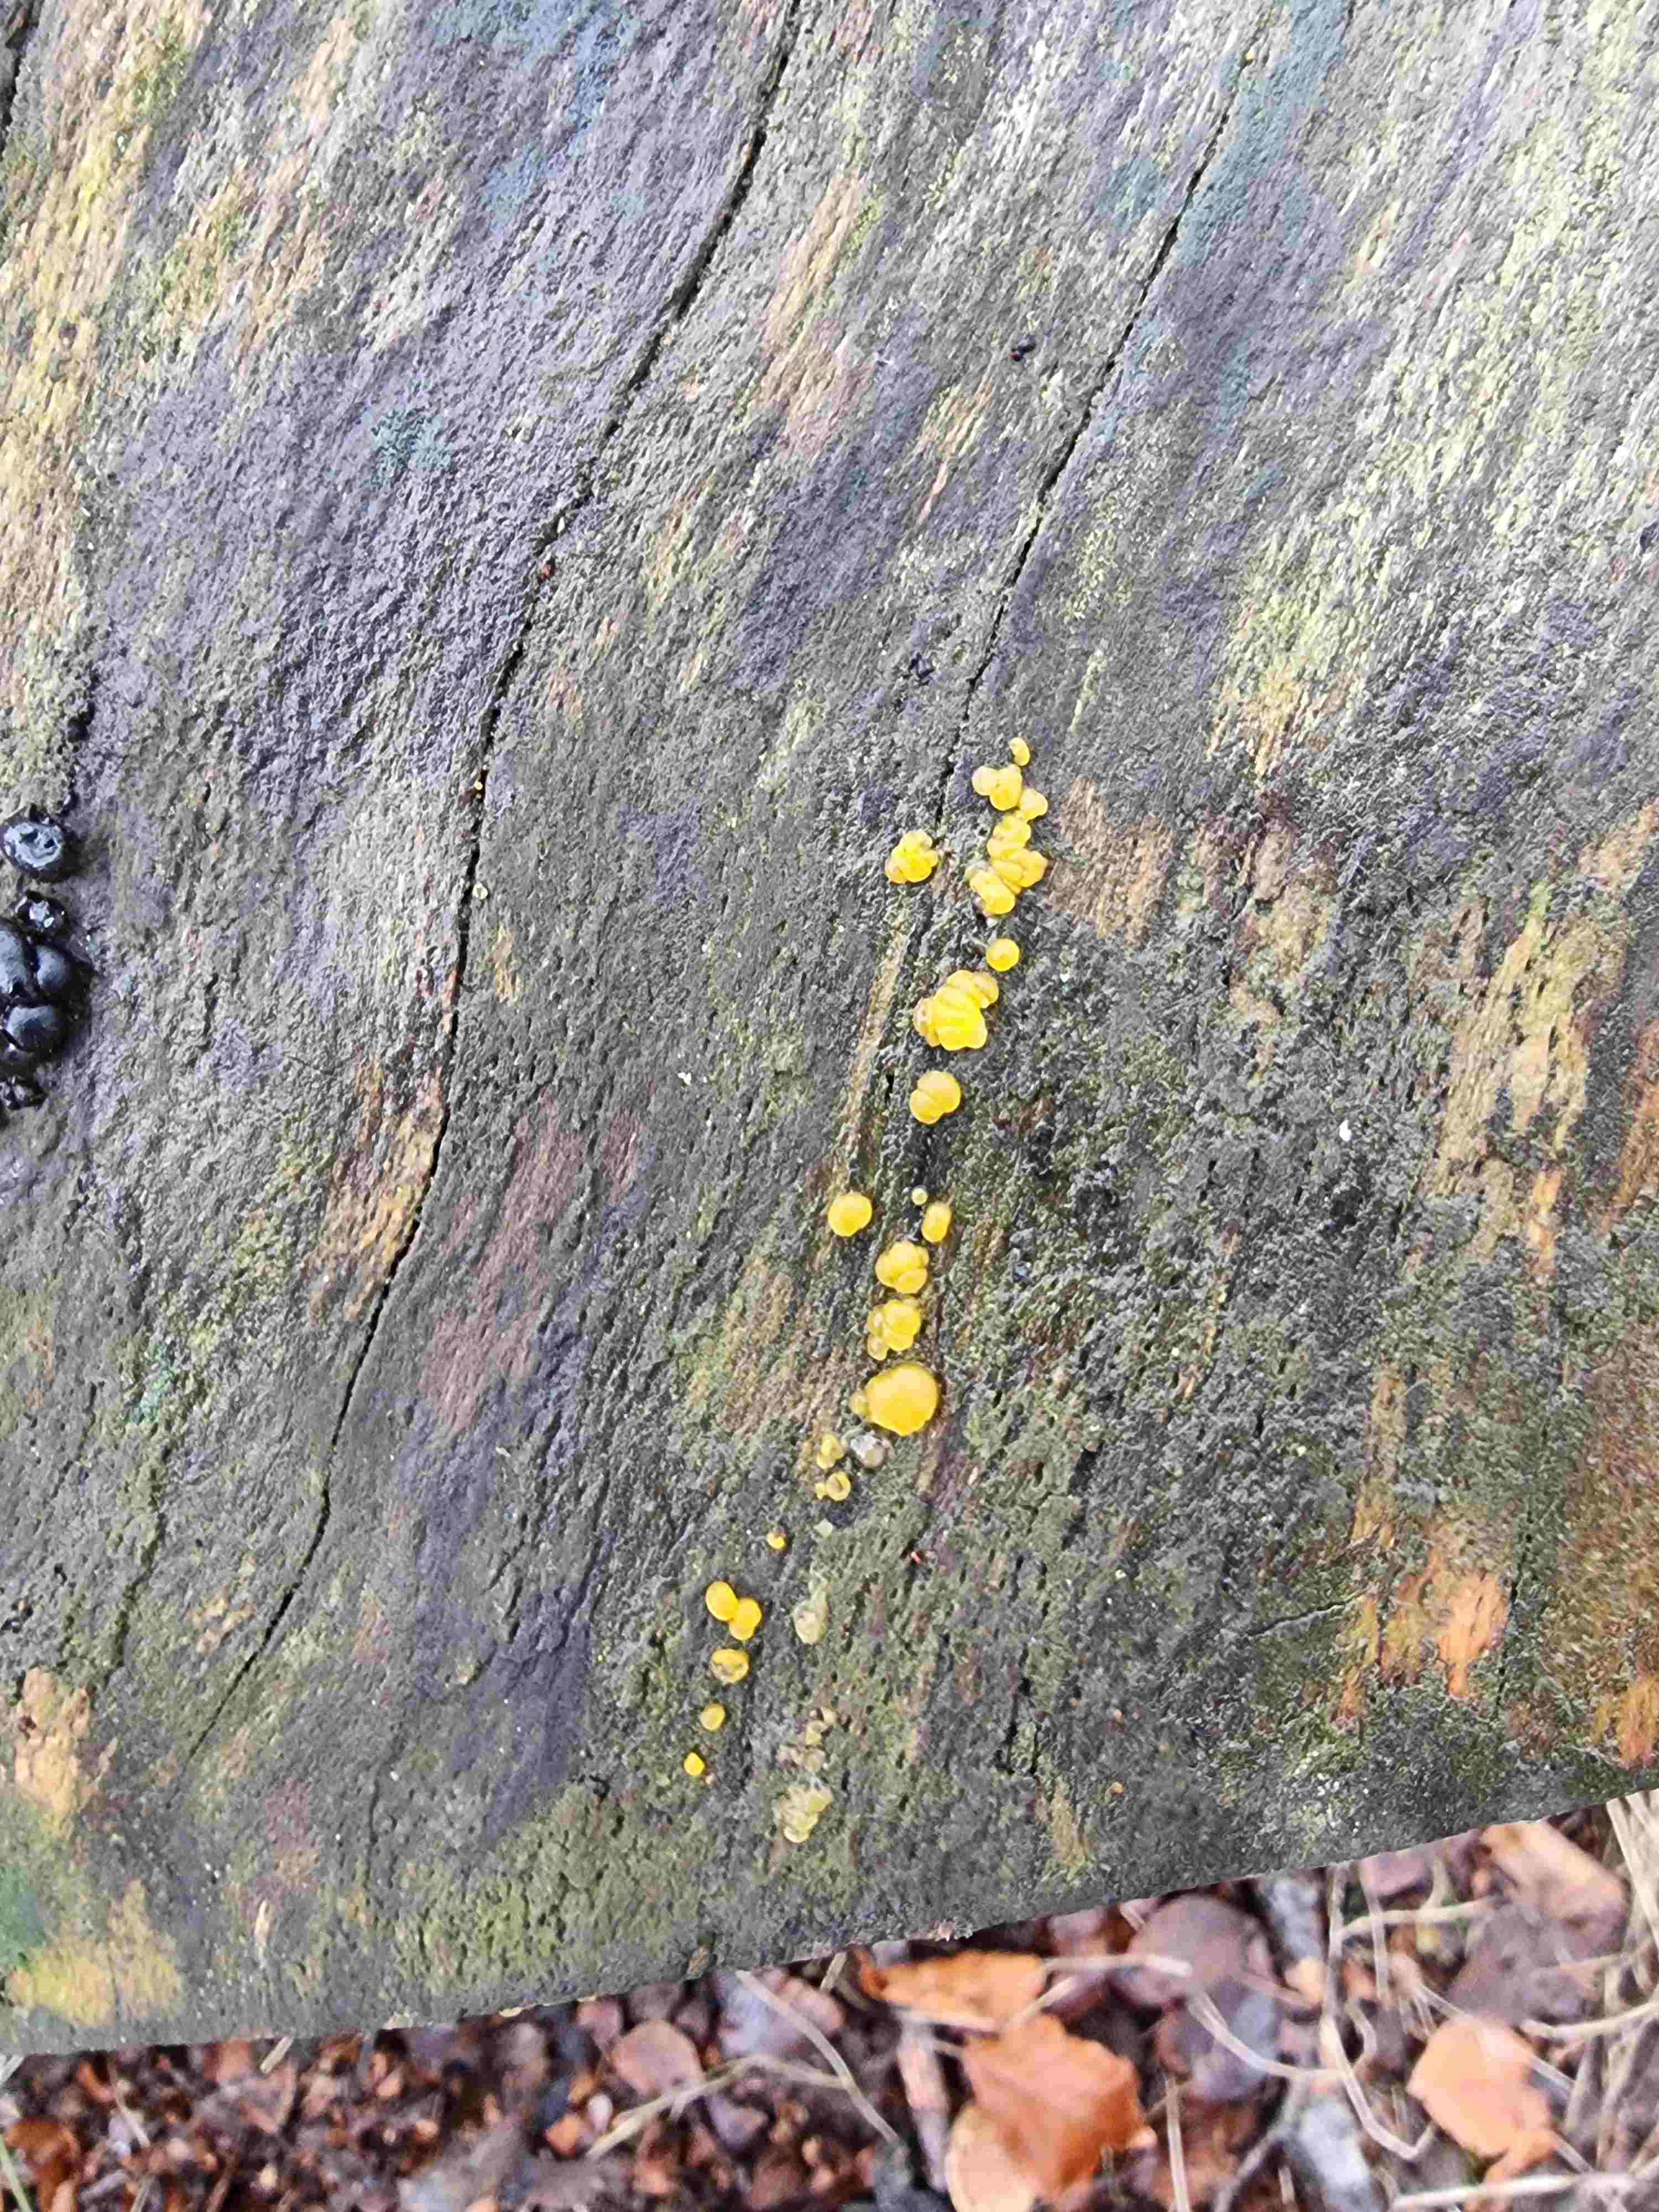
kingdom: Fungi
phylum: Basidiomycota
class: Dacrymycetes
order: Dacrymycetales
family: Dacrymycetaceae
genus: Dacrymyces
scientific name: Dacrymyces lacrymalis
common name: rynket tåresvamp
